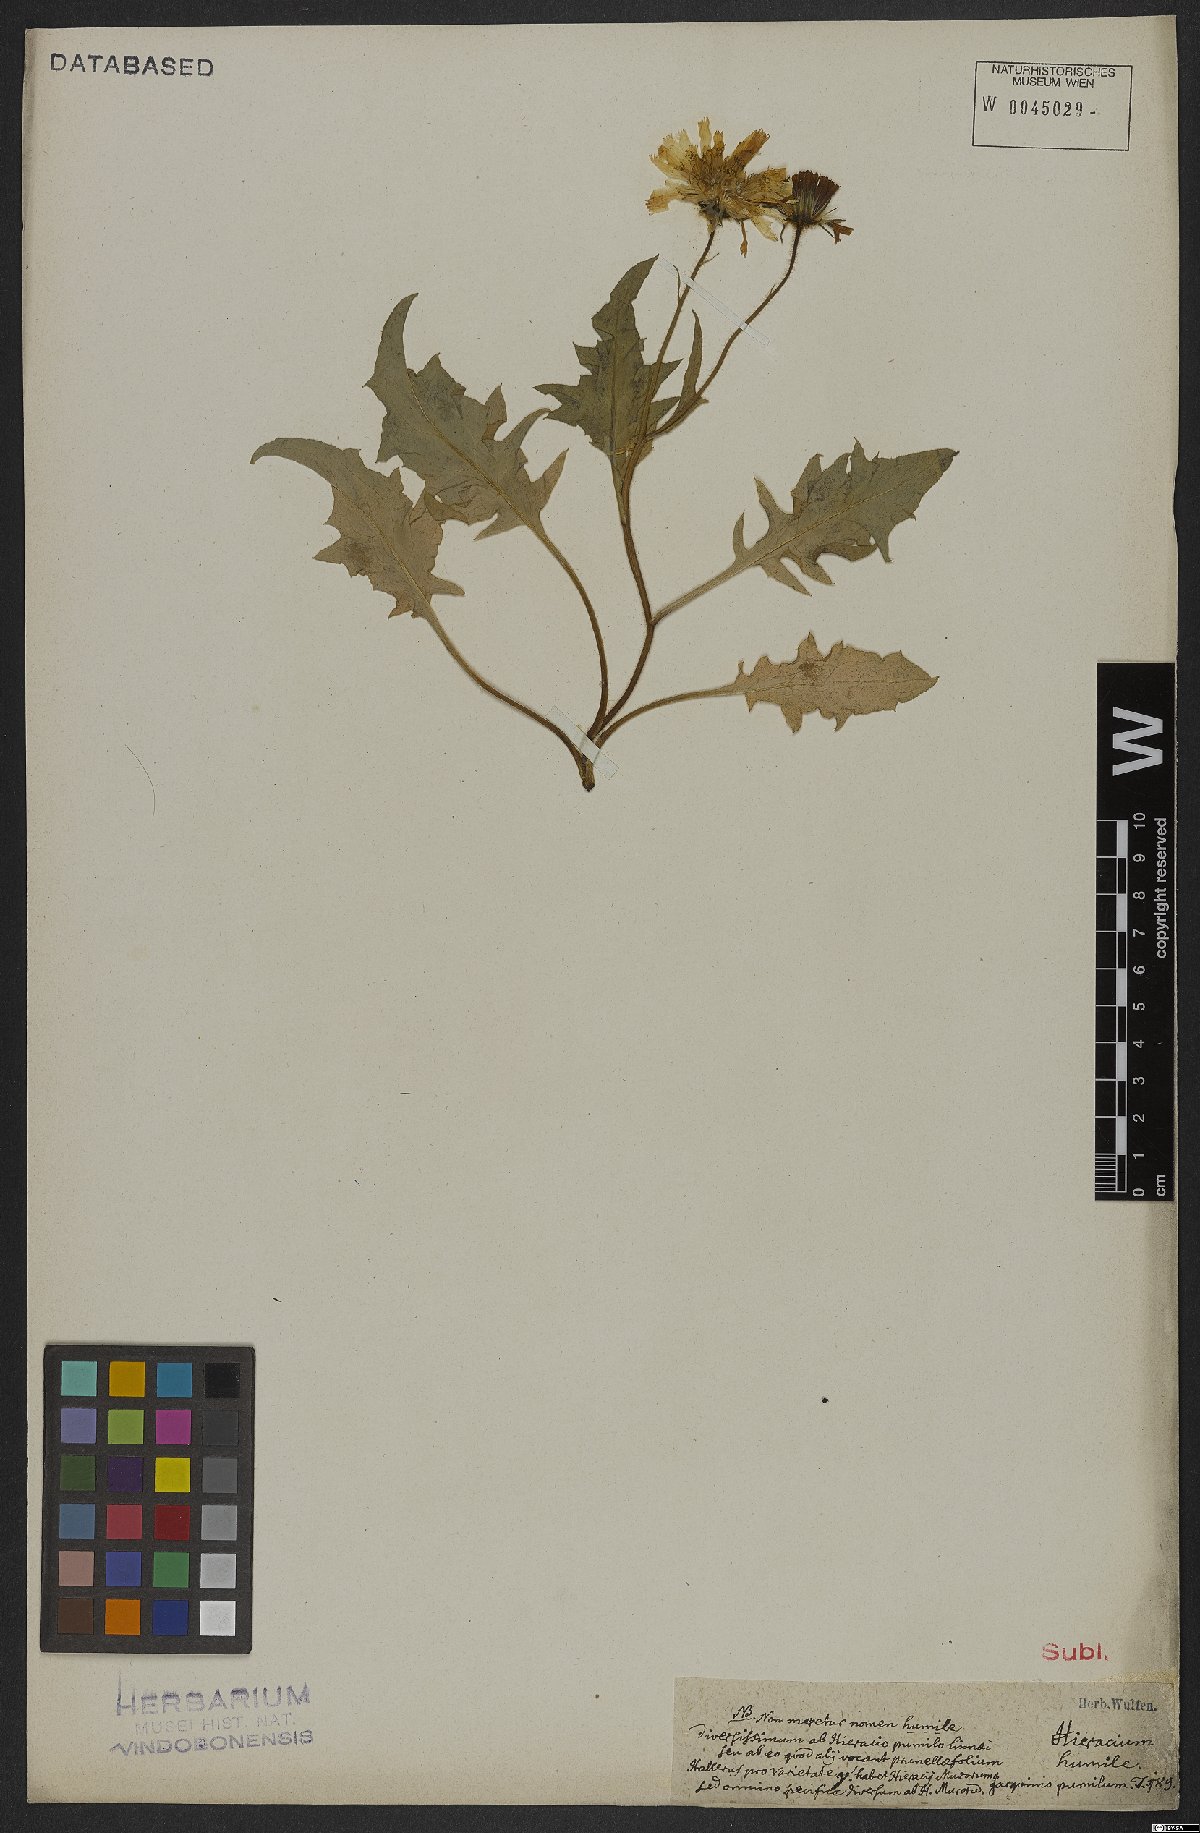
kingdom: Plantae
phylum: Tracheophyta
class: Magnoliopsida
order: Asterales
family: Asteraceae
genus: Hieracium
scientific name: Hieracium humile
